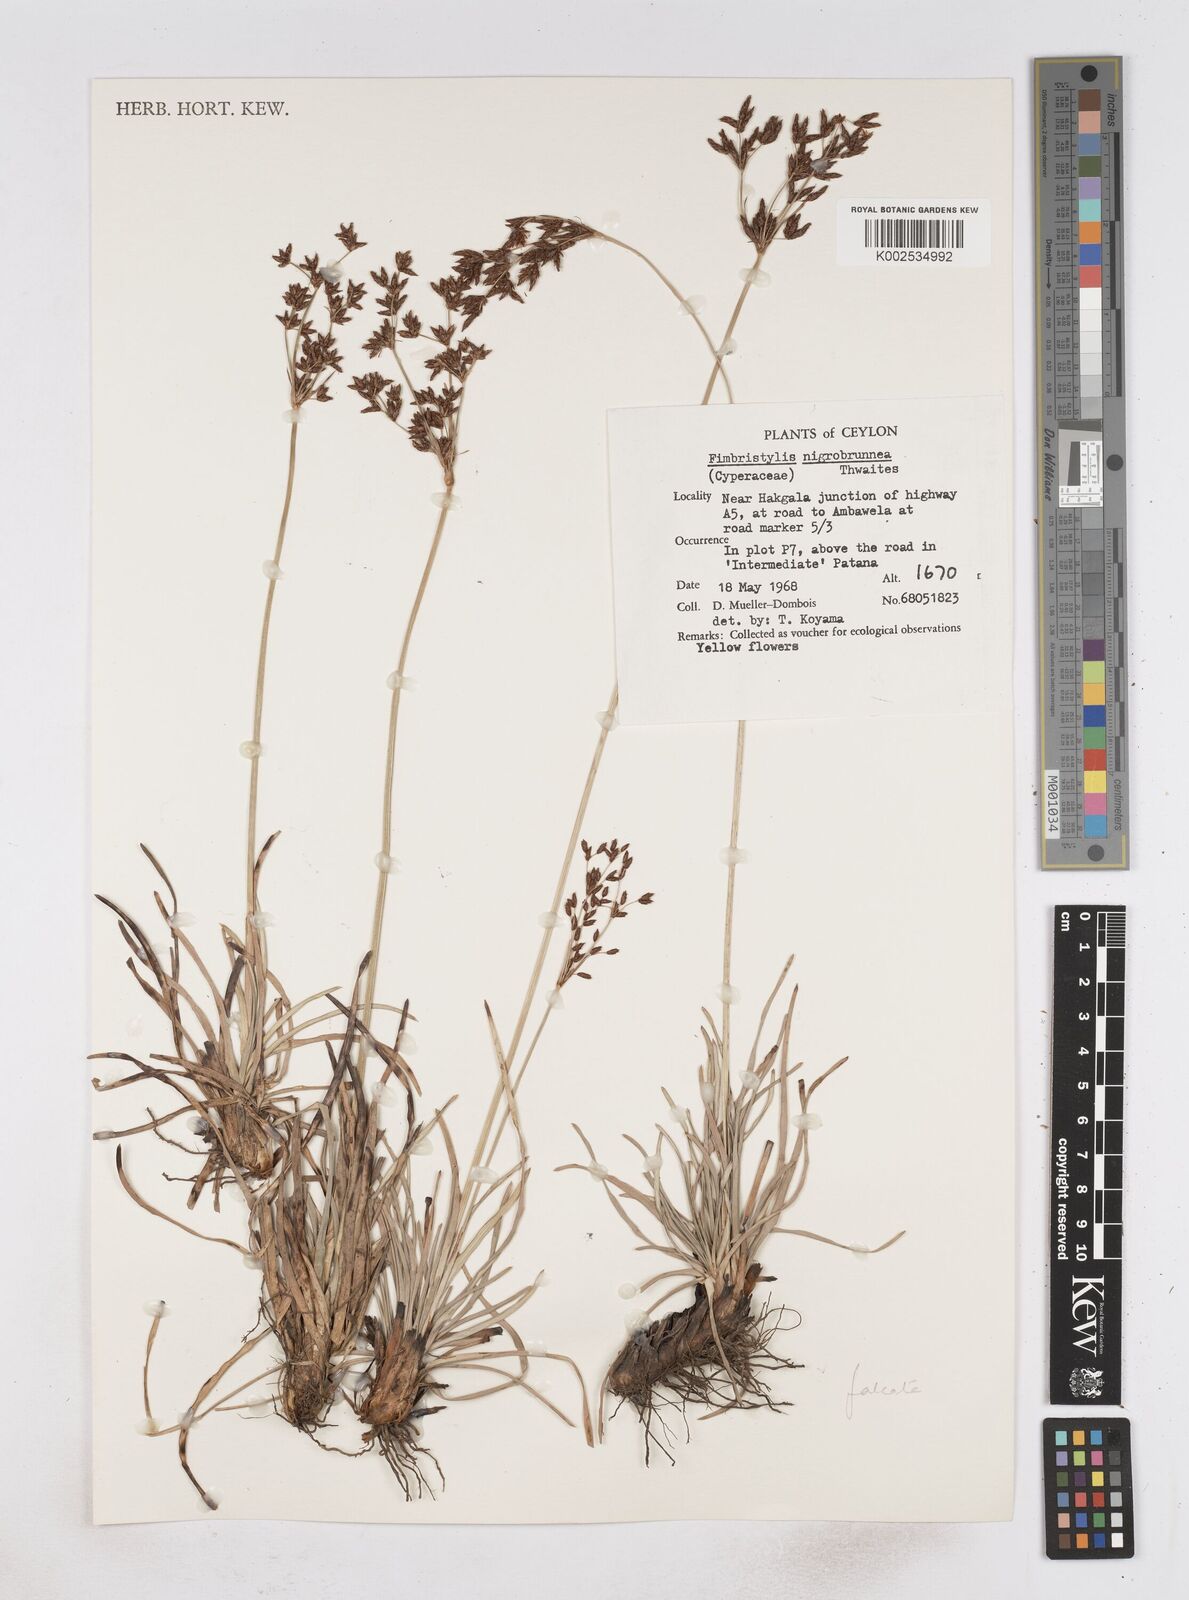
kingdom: Plantae
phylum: Tracheophyta
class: Liliopsida
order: Poales
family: Cyperaceae
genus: Fimbristylis
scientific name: Fimbristylis nigrobrunnea
